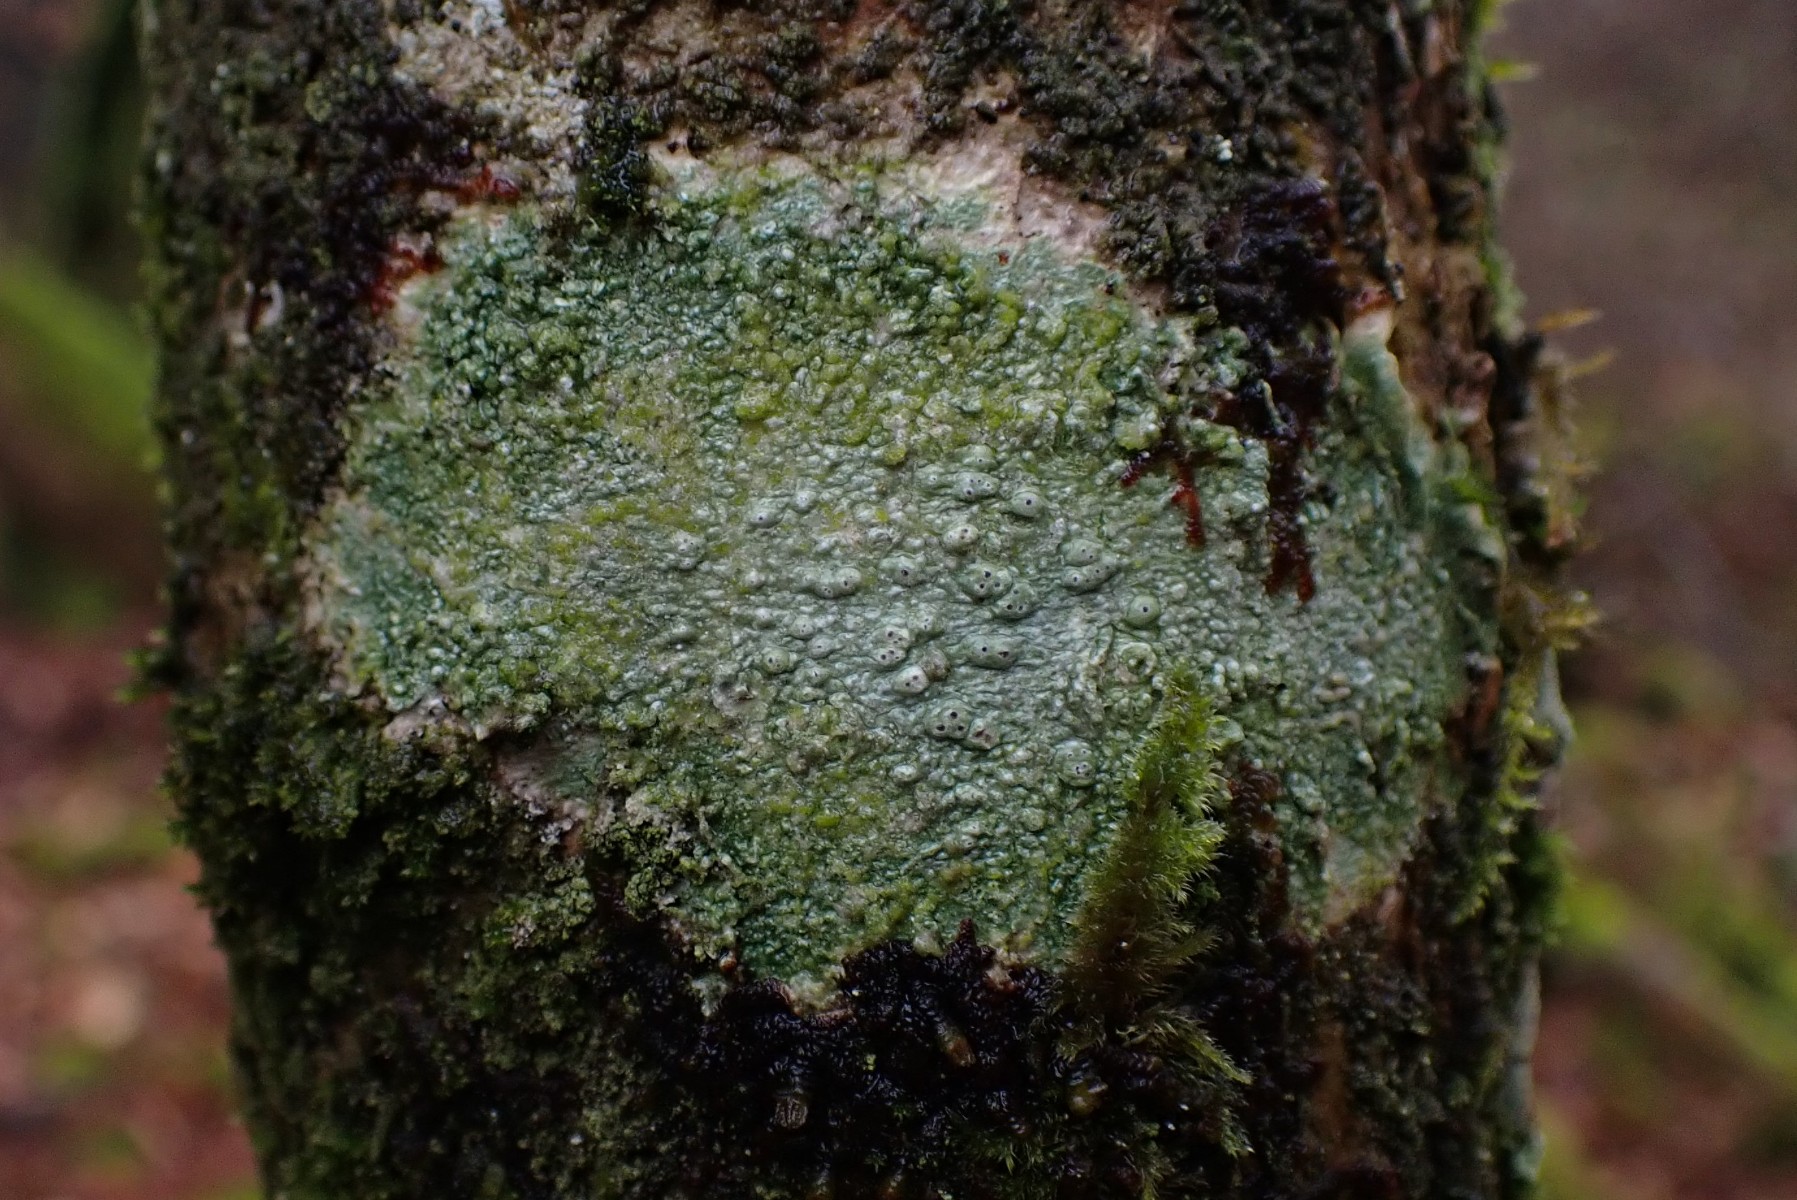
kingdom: Fungi
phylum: Ascomycota
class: Lecanoromycetes
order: Pertusariales
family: Pertusariaceae
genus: Pertusaria
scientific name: Pertusaria pertusa
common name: almindelig prikvortelav
